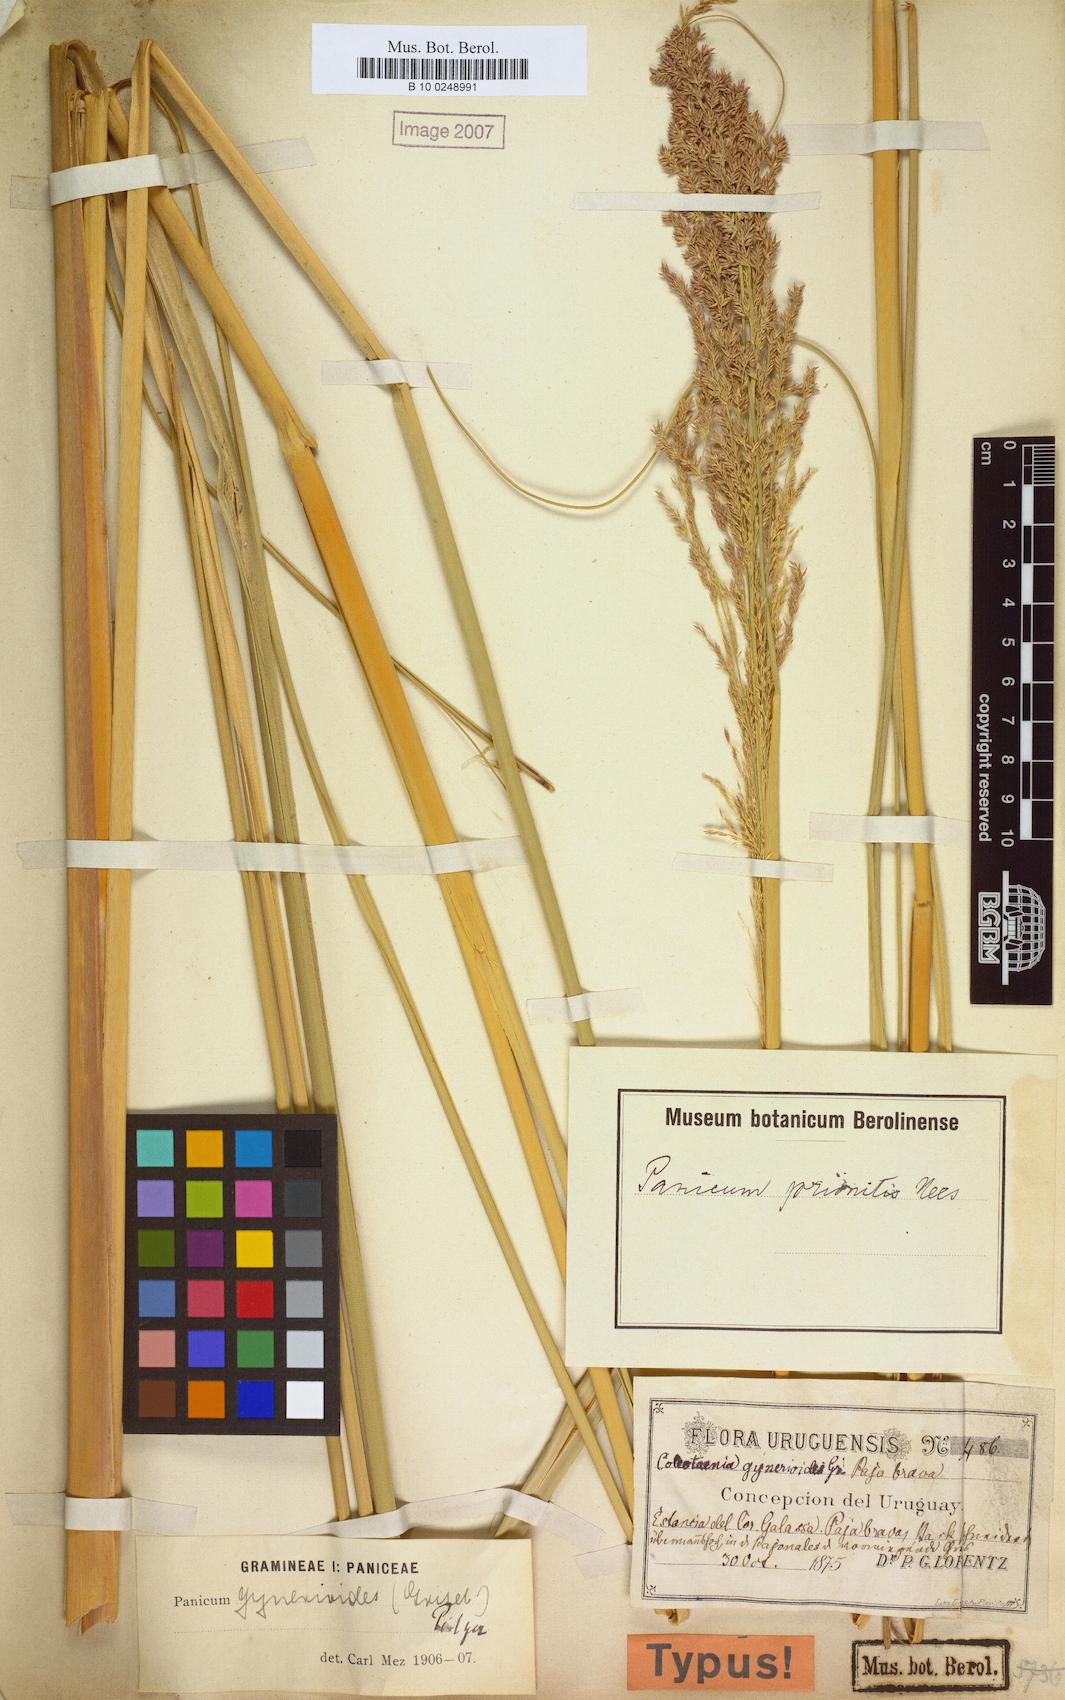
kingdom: Plantae
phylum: Tracheophyta
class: Liliopsida
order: Poales
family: Poaceae
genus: Coleataenia
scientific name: Coleataenia prionitis
